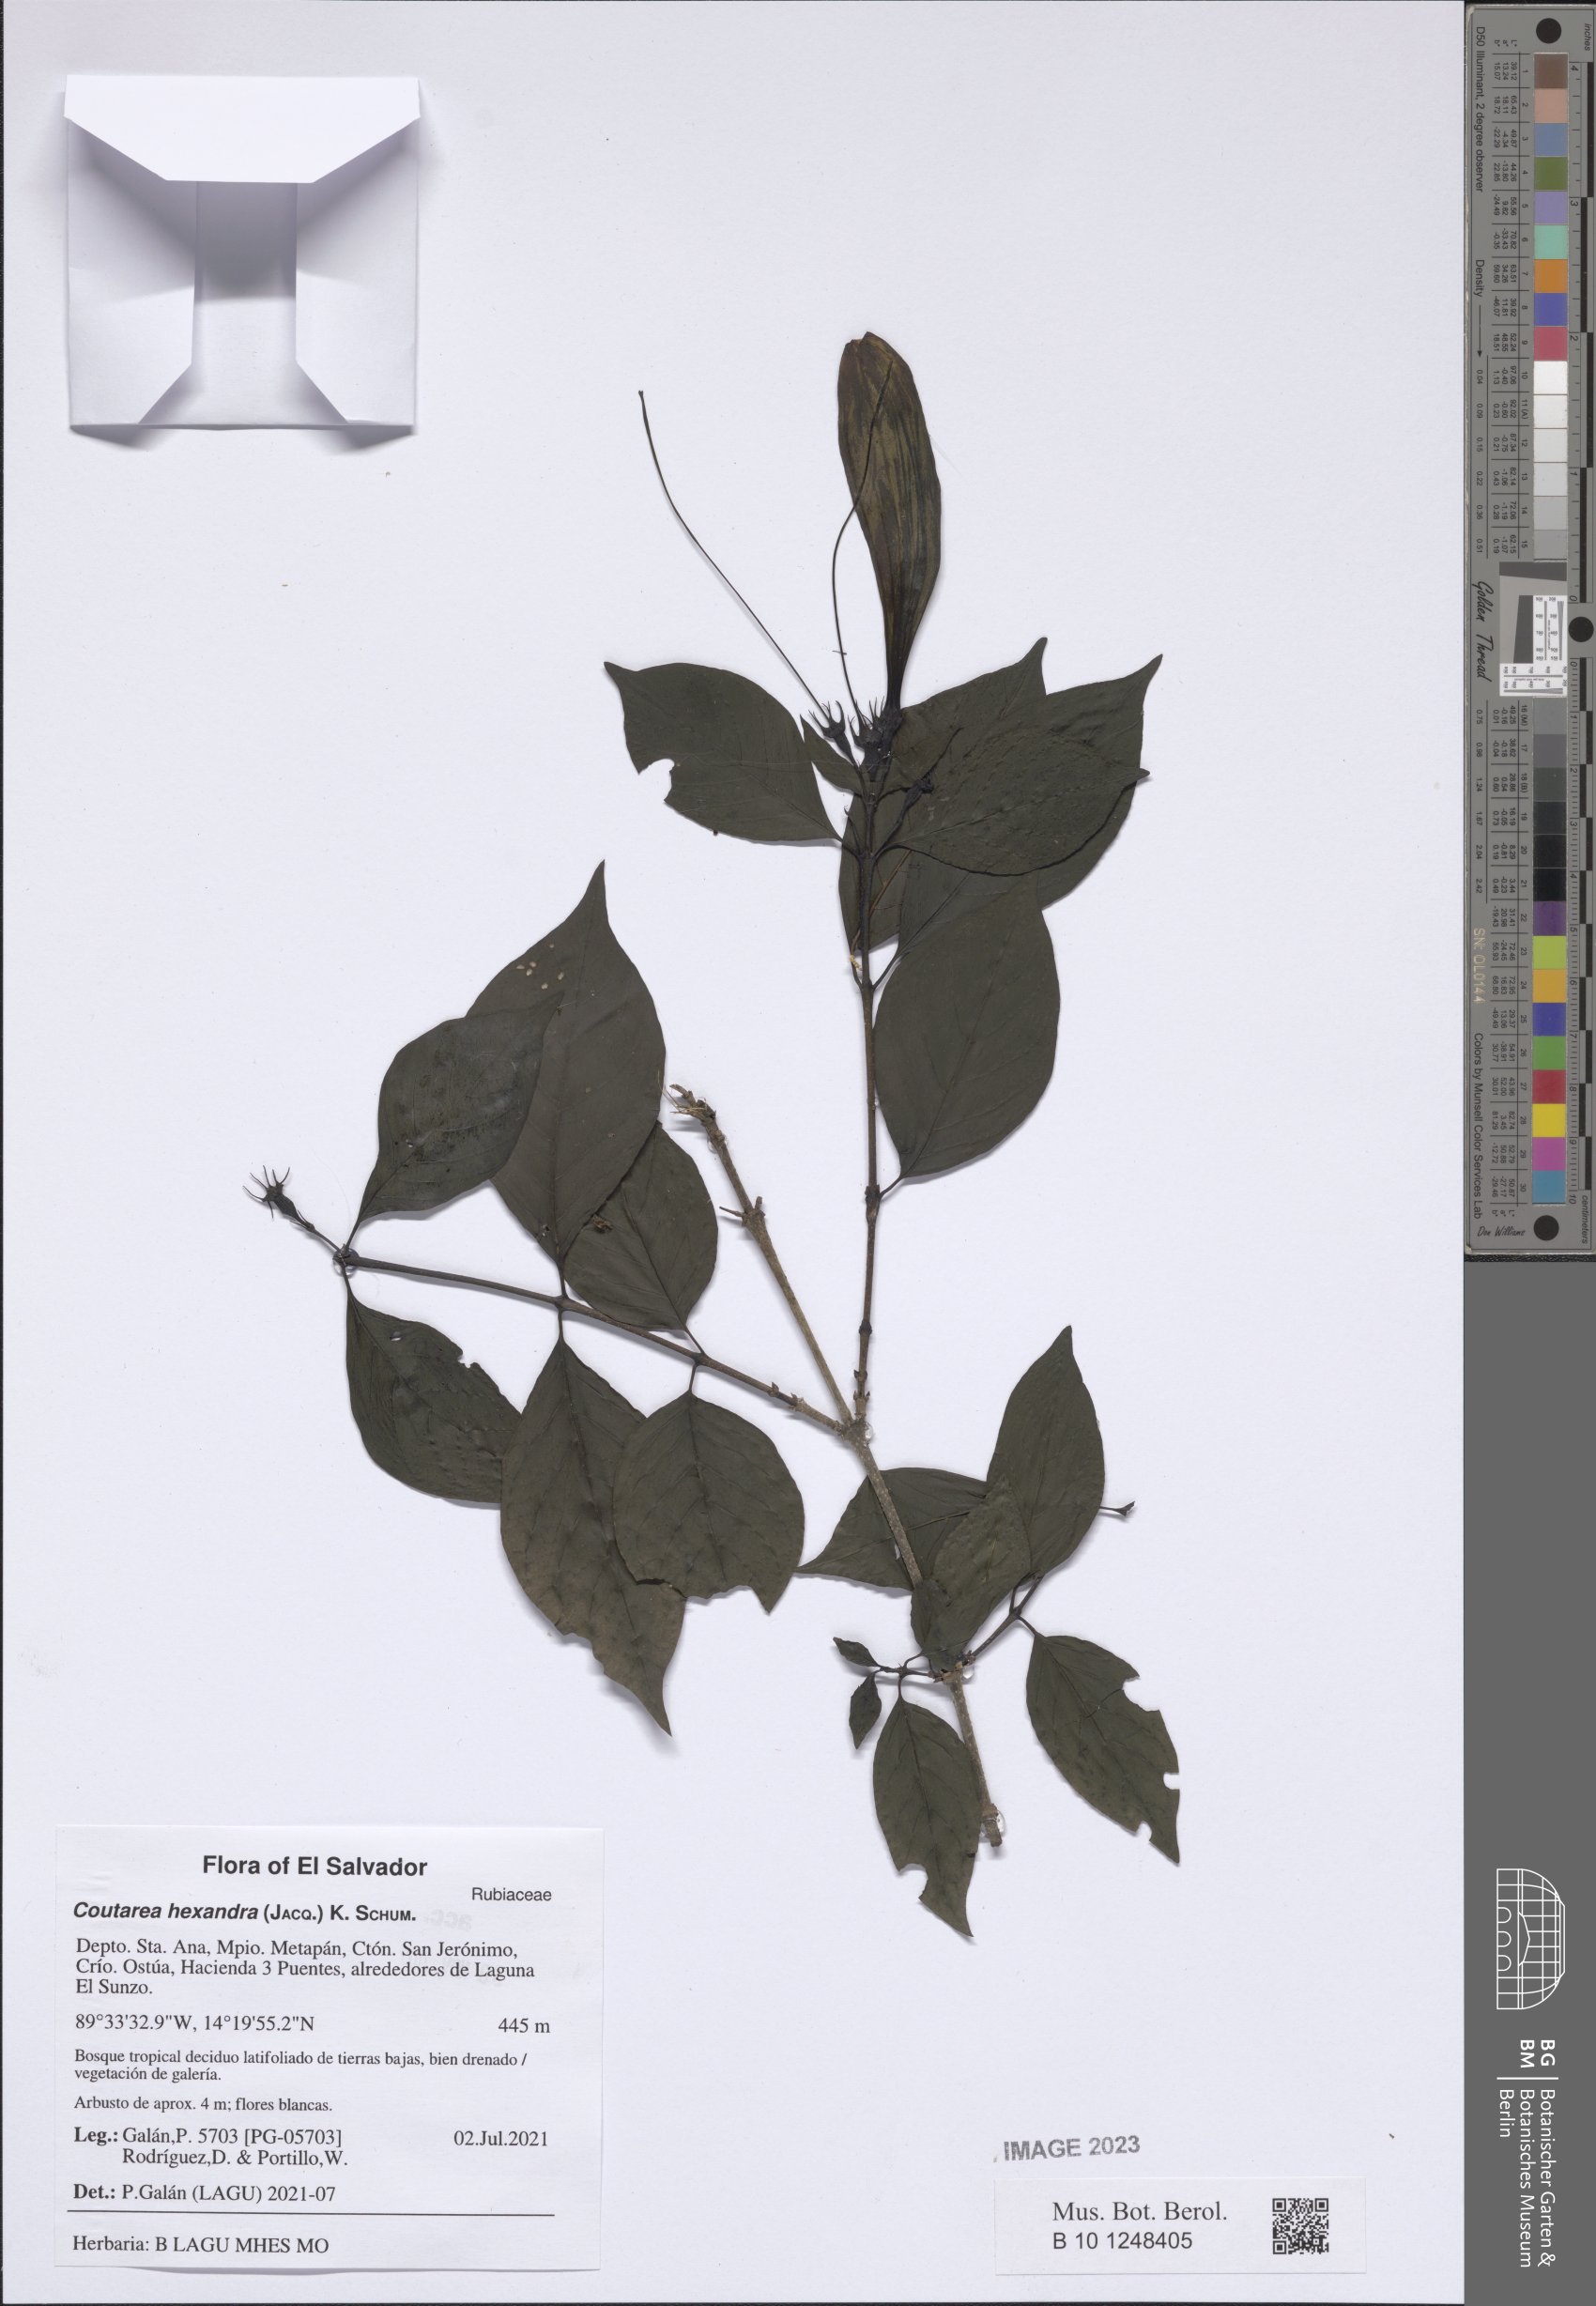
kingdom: Plantae
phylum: Tracheophyta
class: Magnoliopsida
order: Gentianales
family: Rubiaceae
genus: Coutarea
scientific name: Coutarea hexandra
